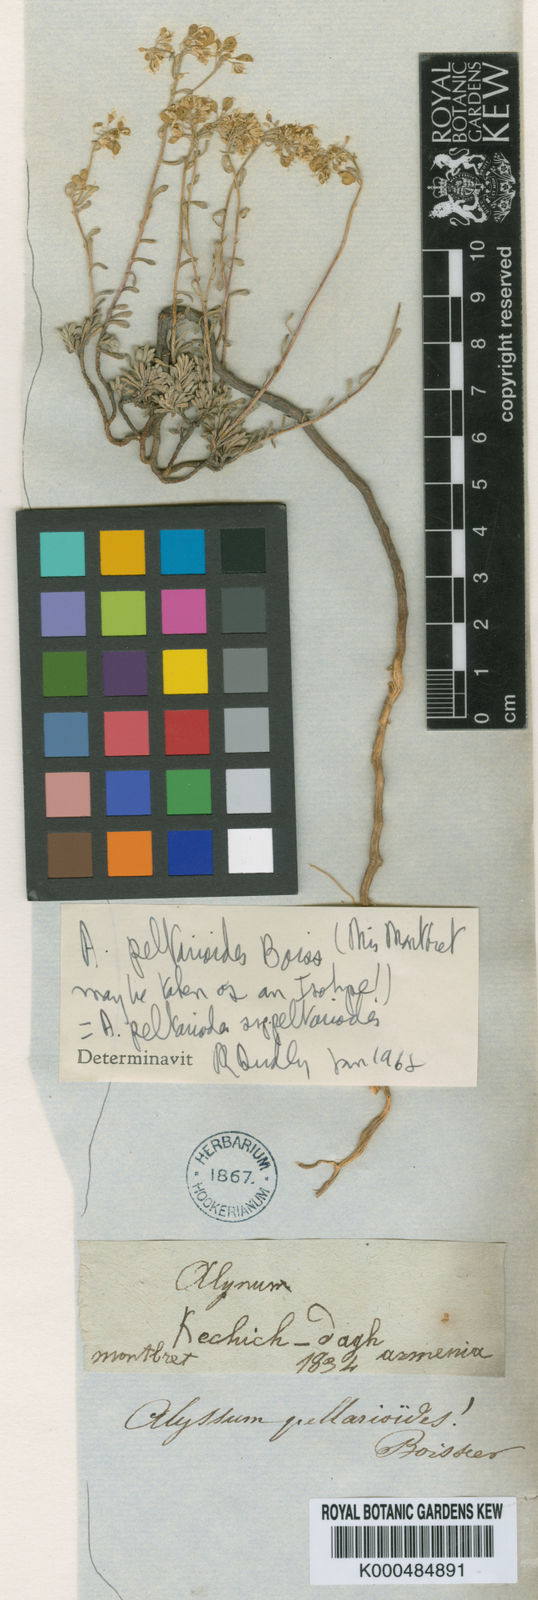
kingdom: Plantae
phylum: Tracheophyta
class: Magnoliopsida
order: Brassicales
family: Brassicaceae
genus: Odontarrhena
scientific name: Odontarrhena
